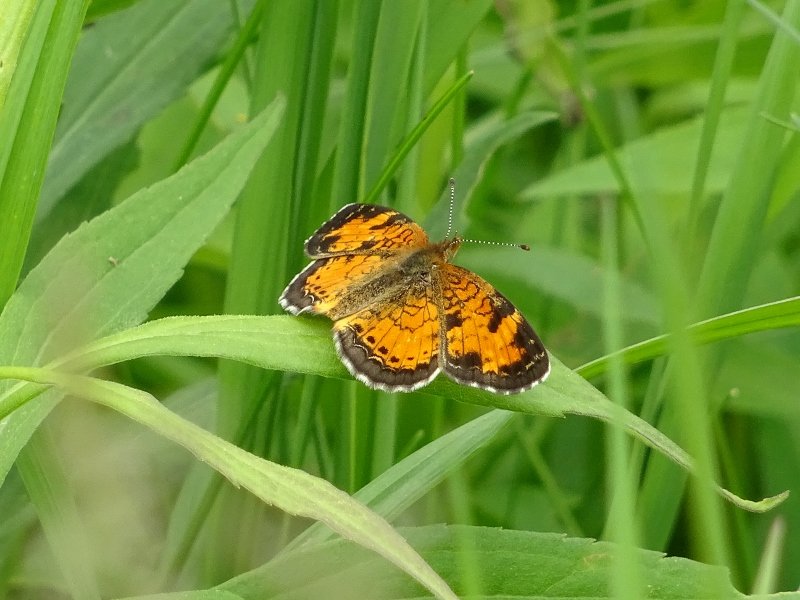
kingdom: Animalia
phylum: Arthropoda
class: Insecta
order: Lepidoptera
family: Nymphalidae
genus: Phyciodes
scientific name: Phyciodes tharos
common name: Pearl Crescent
